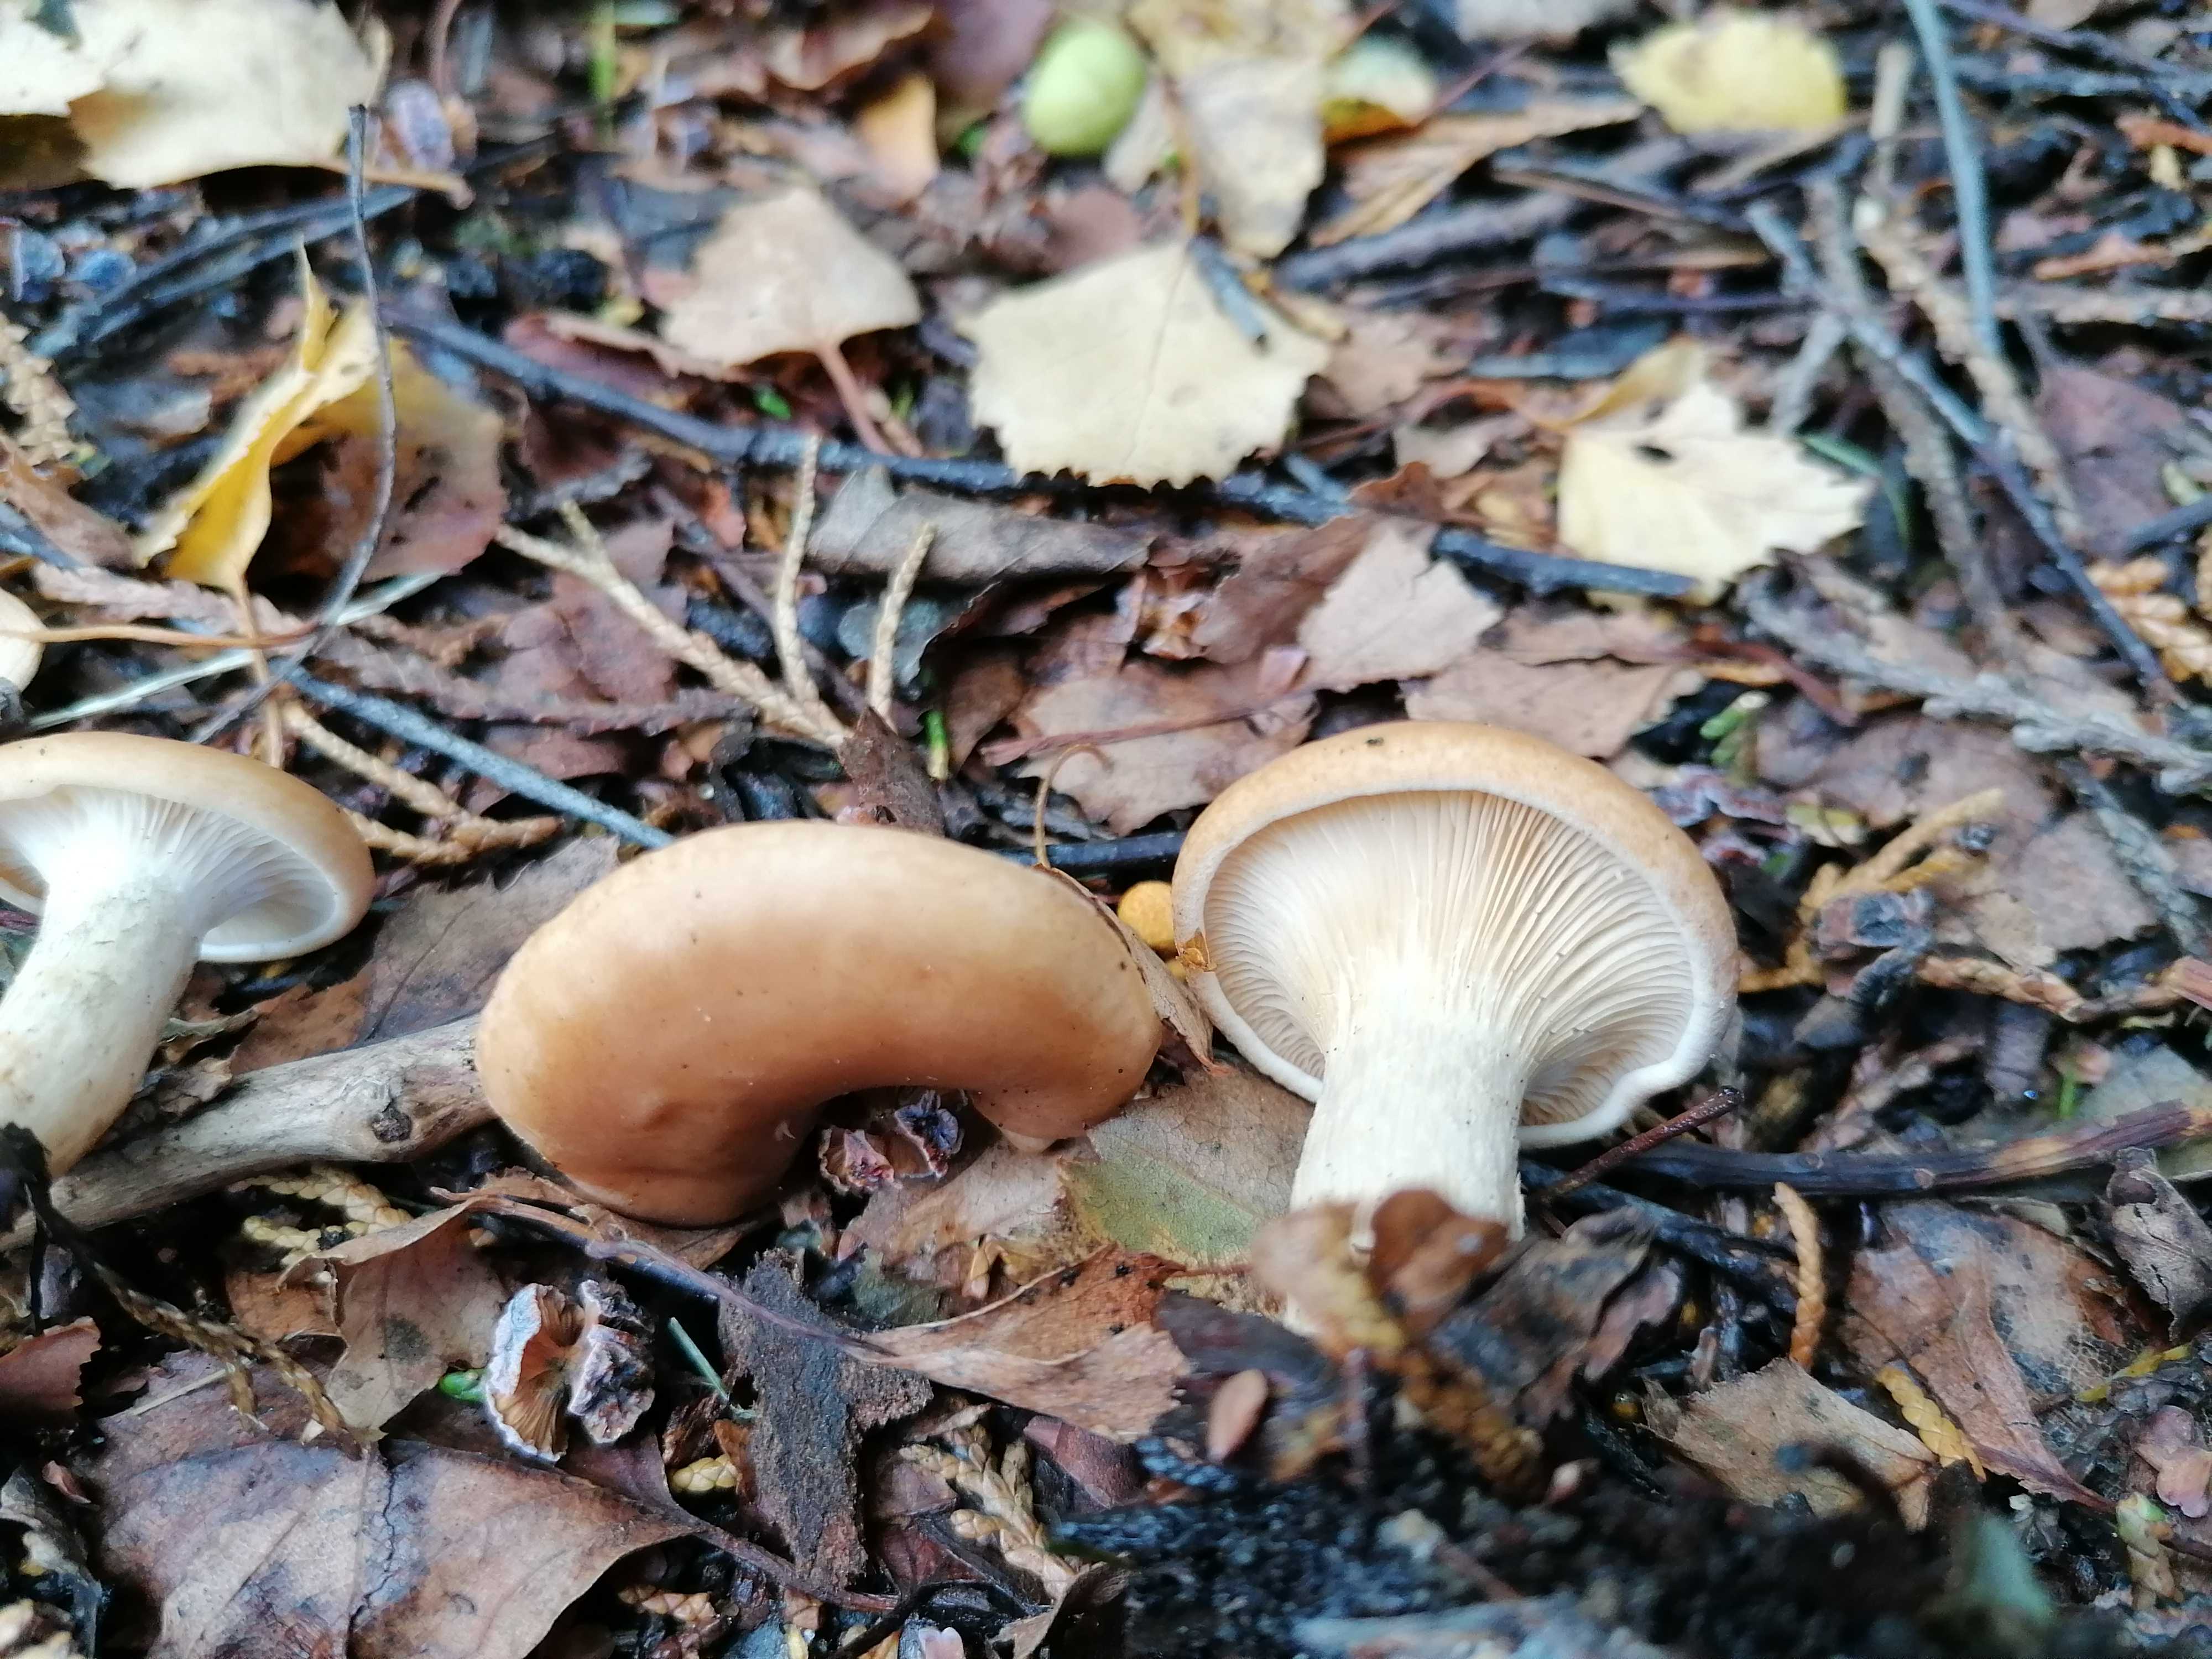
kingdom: Fungi
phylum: Basidiomycota
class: Agaricomycetes
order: Agaricales
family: Tricholomataceae
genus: Paralepista
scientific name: Paralepista flaccida
